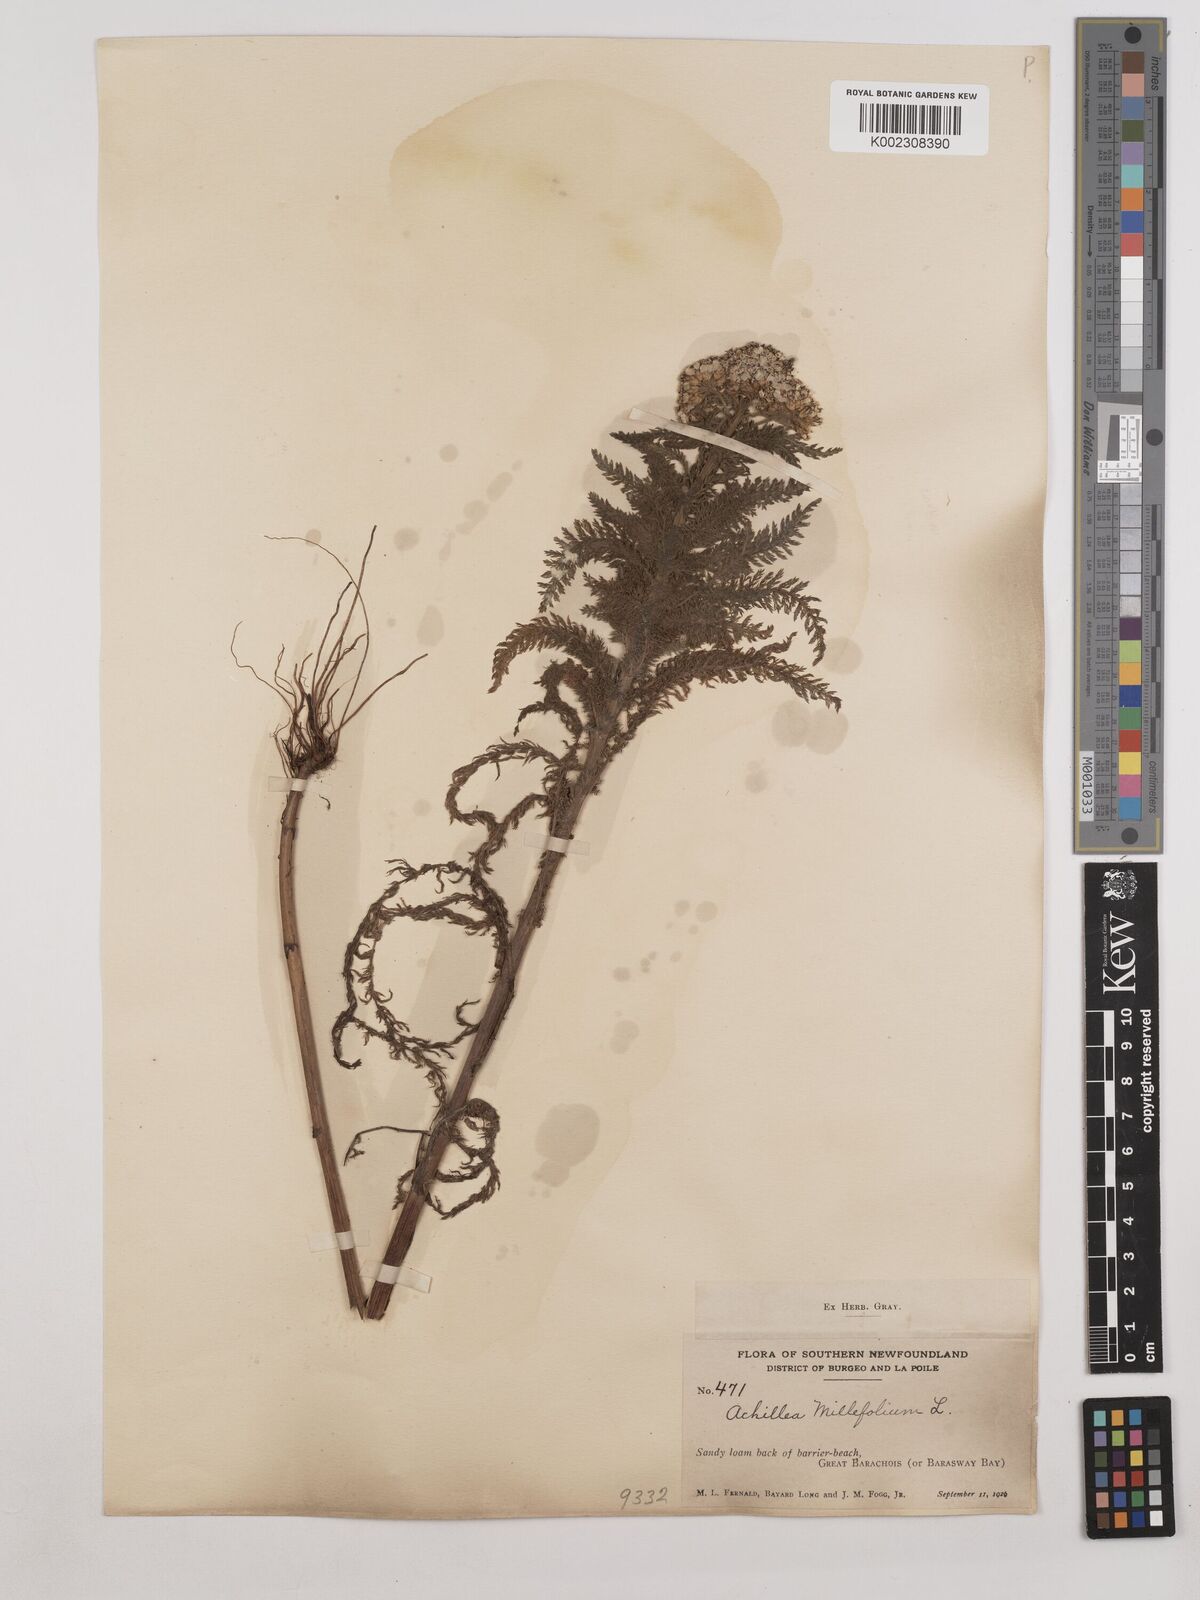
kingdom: Plantae
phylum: Tracheophyta
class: Magnoliopsida
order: Asterales
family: Asteraceae
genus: Achillea
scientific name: Achillea millefolium
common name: Yarrow
